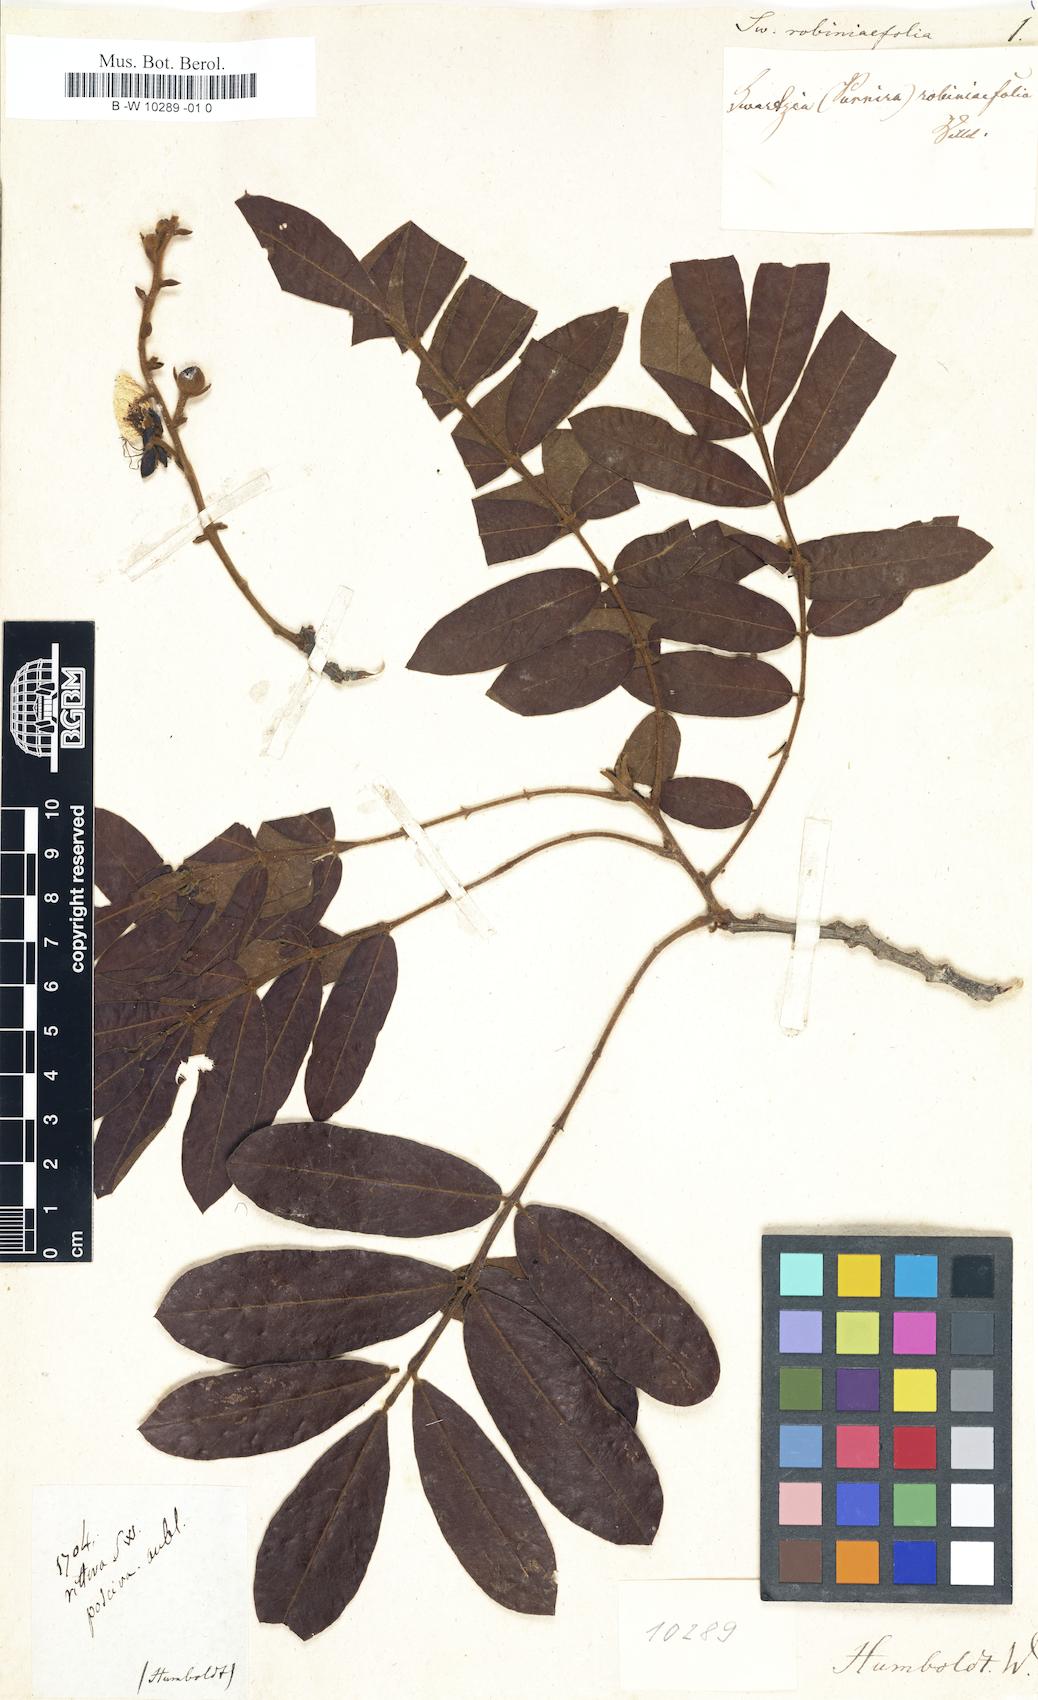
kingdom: Plantae
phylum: Tracheophyta
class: Magnoliopsida
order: Fabales
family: Fabaceae
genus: Swartzia
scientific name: Swartzia robiniifolia
